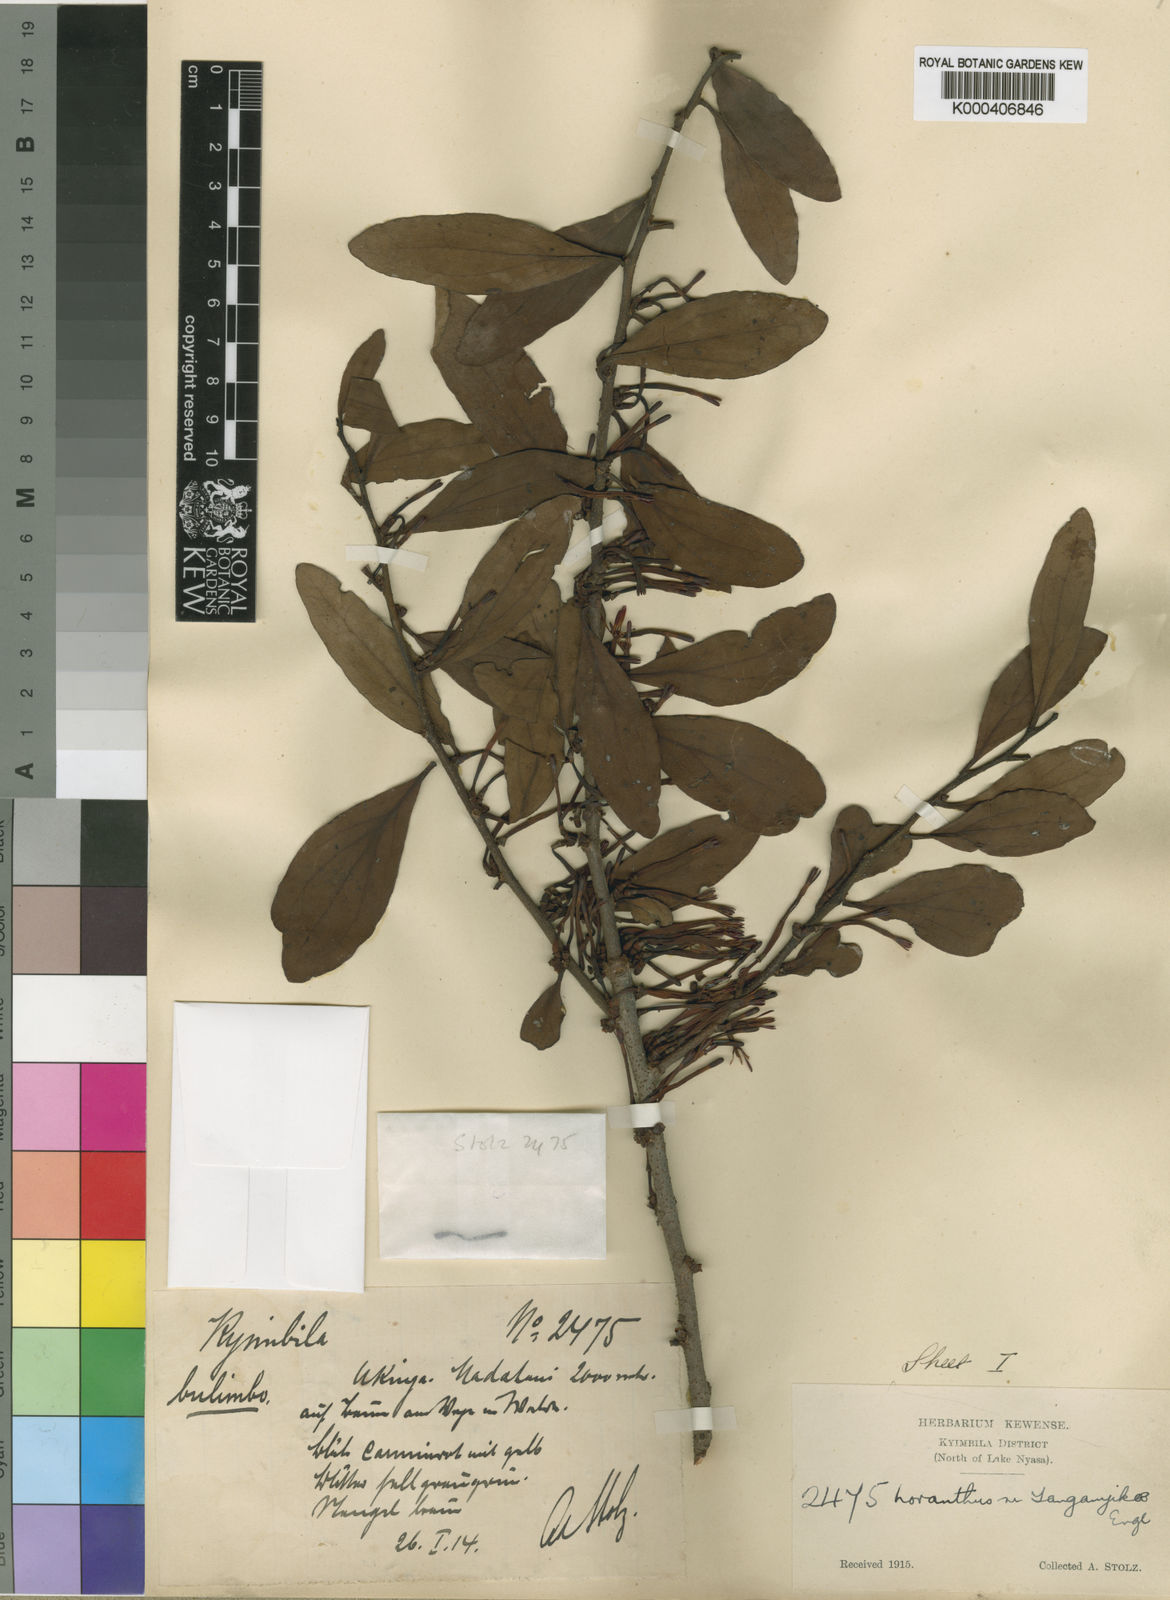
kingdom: Plantae
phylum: Tracheophyta
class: Magnoliopsida
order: Santalales
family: Loranthaceae
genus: Agelanthus
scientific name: Agelanthus bipartitus
